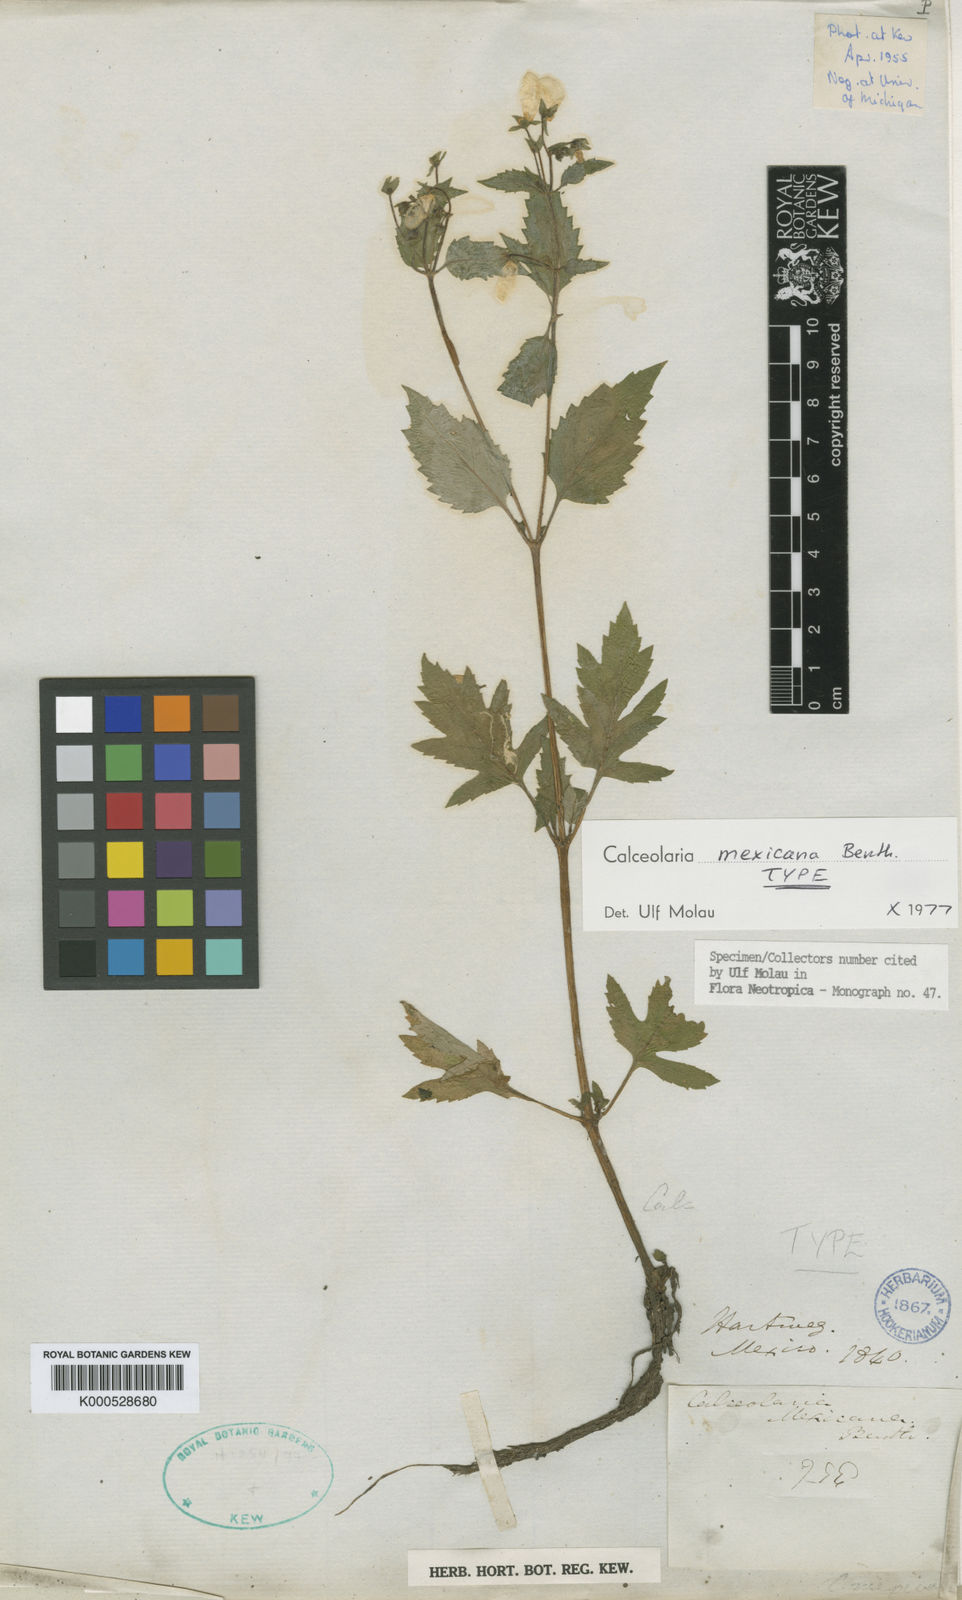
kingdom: Plantae
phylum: Tracheophyta
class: Magnoliopsida
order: Lamiales
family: Calceolariaceae
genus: Calceolaria
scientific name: Calceolaria mexicana
